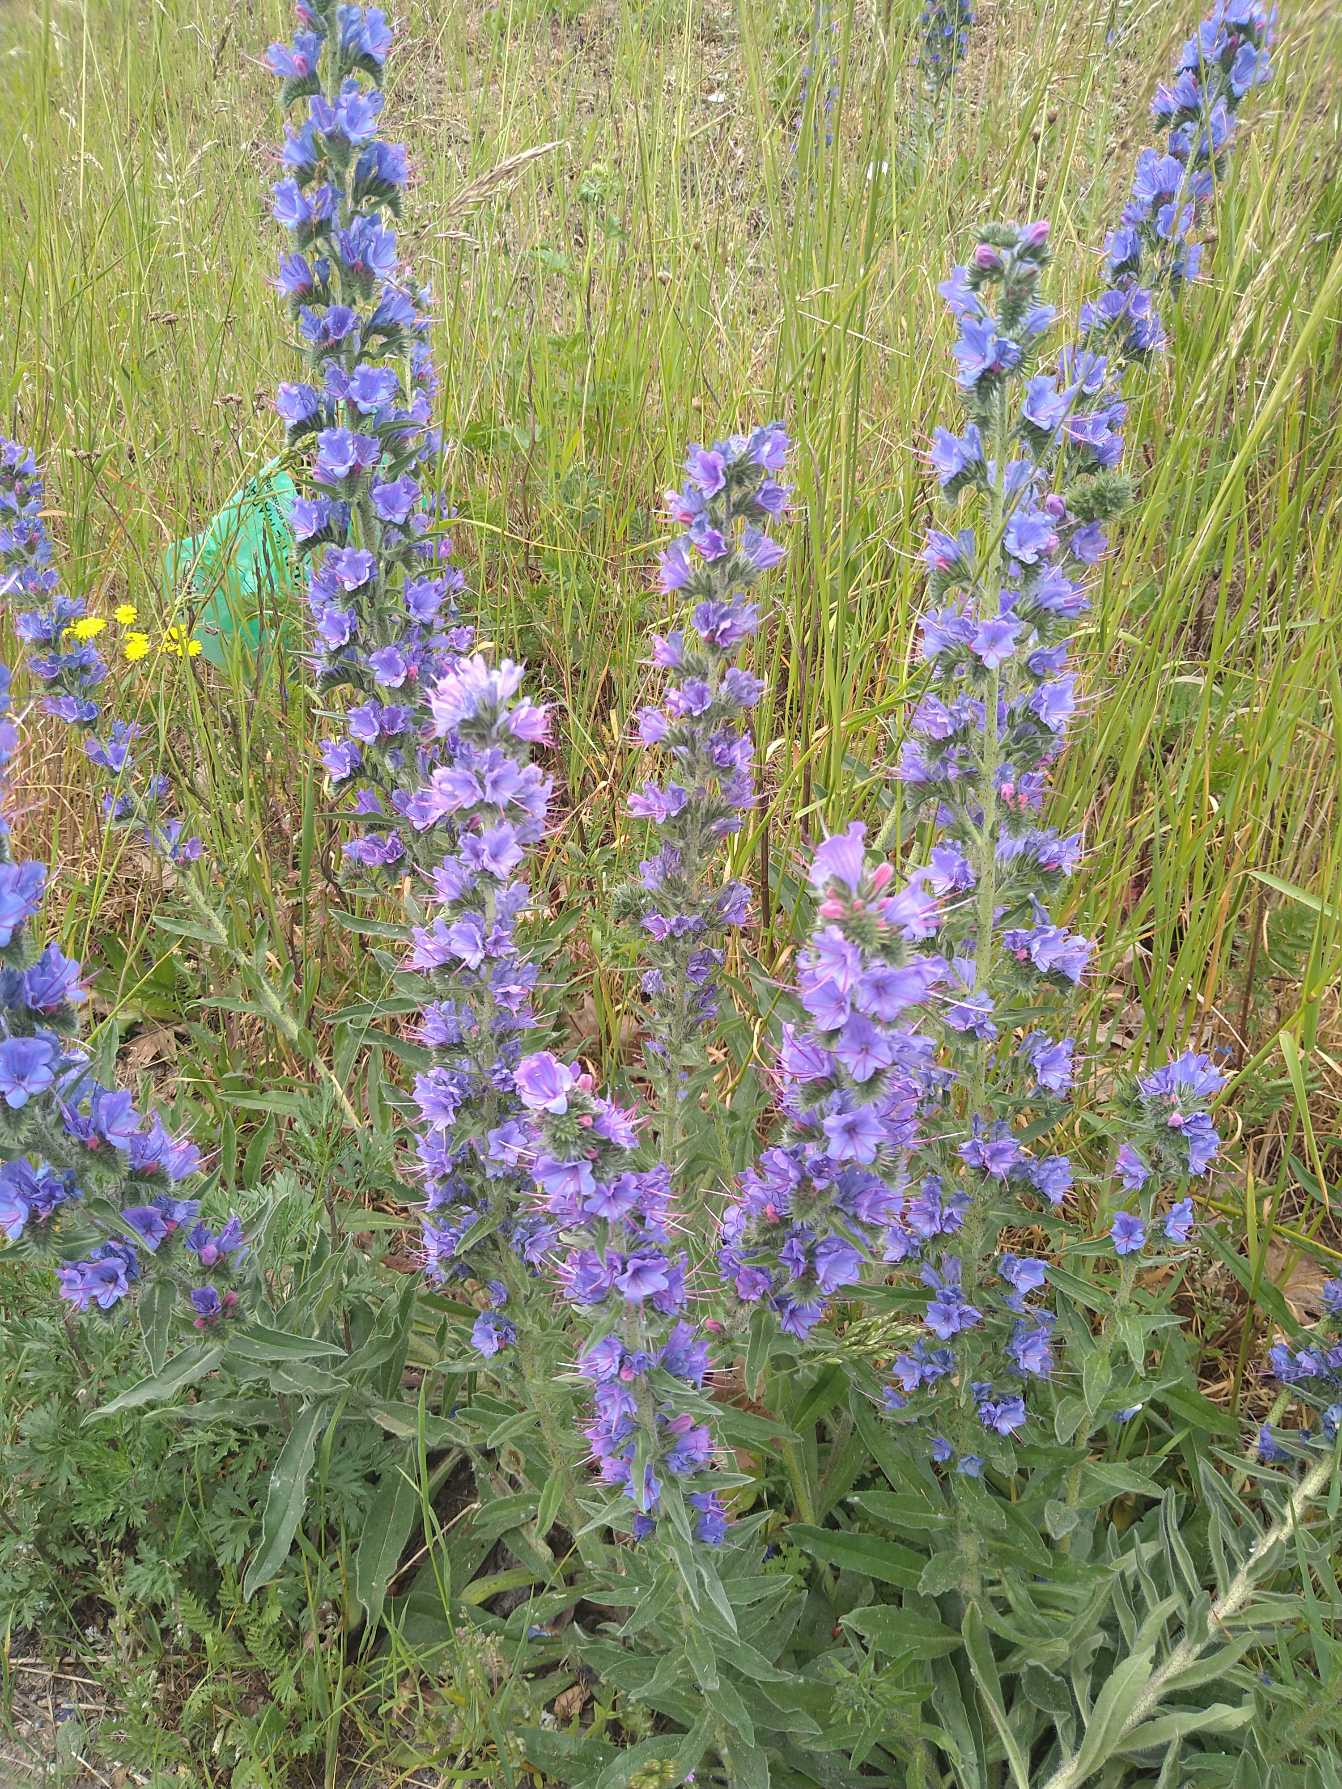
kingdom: Plantae
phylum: Tracheophyta
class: Magnoliopsida
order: Boraginales
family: Boraginaceae
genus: Echium
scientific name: Echium vulgare
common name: Slangehoved
